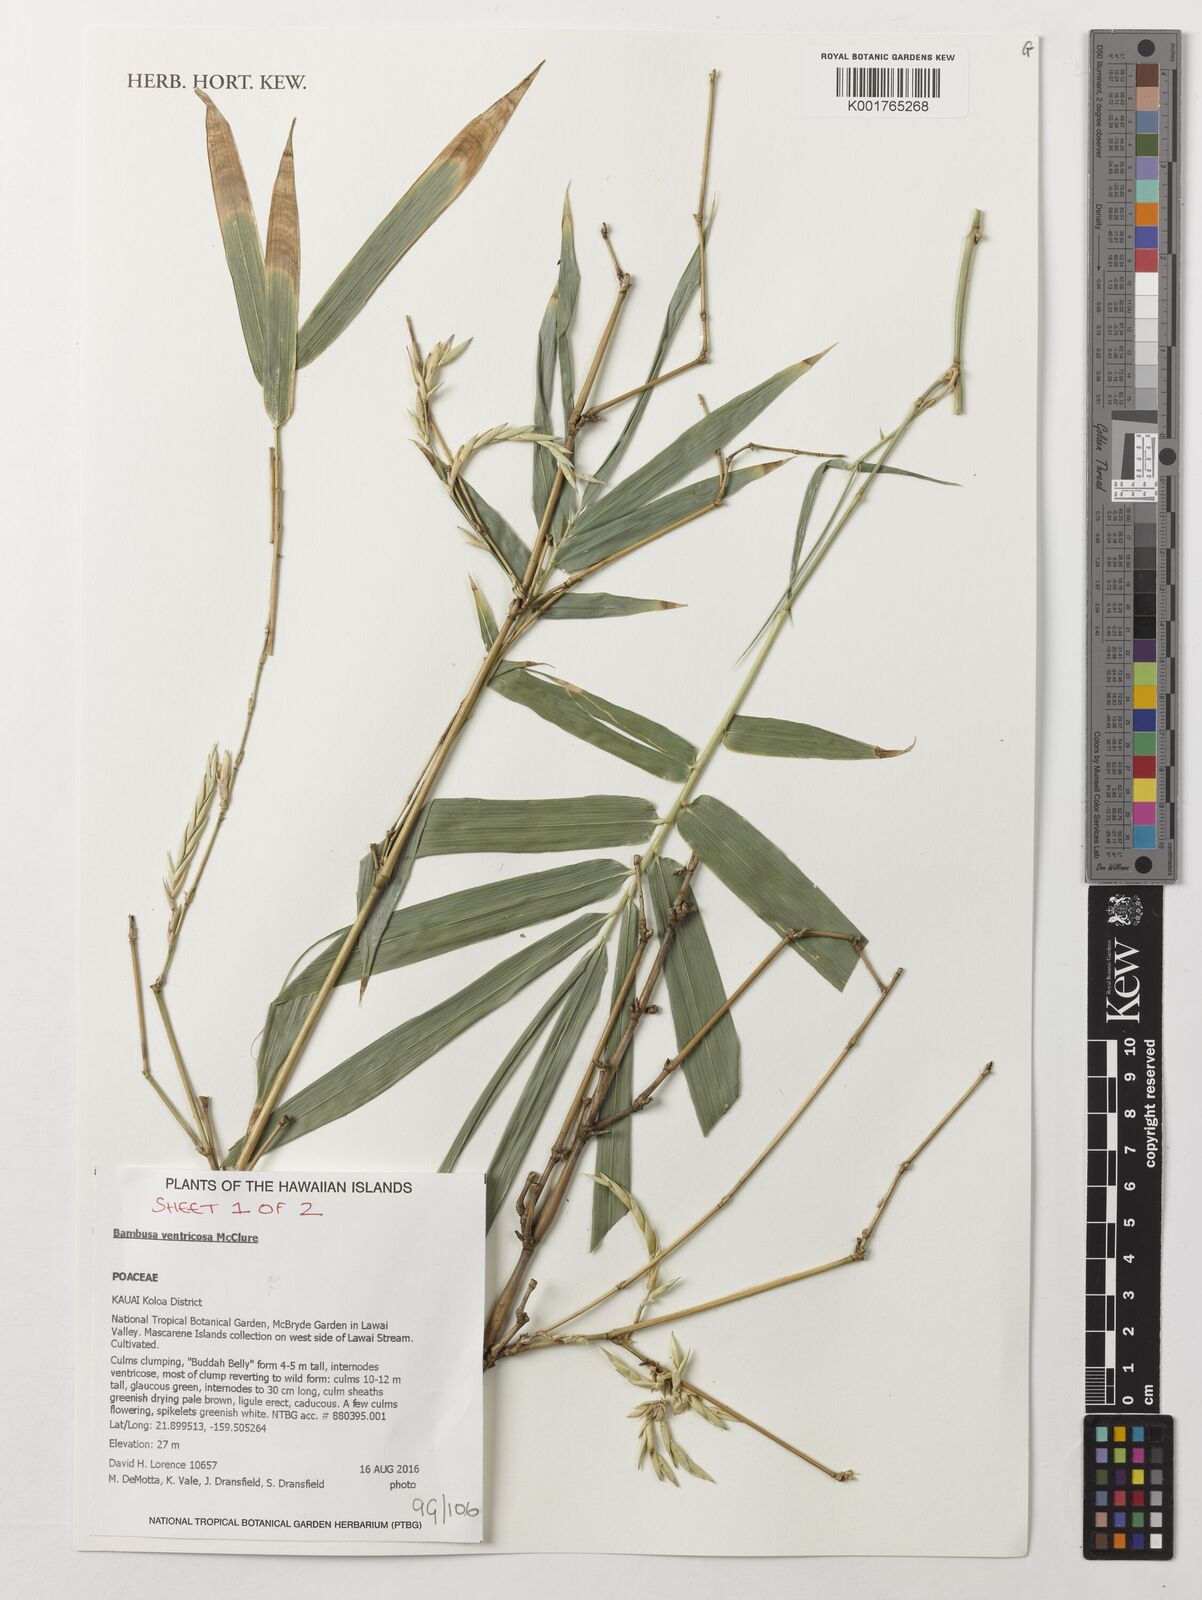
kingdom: Plantae
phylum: Tracheophyta
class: Liliopsida
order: Poales
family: Poaceae
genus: Bambusa
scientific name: Bambusa ventricosa
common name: Buddha bamboo
